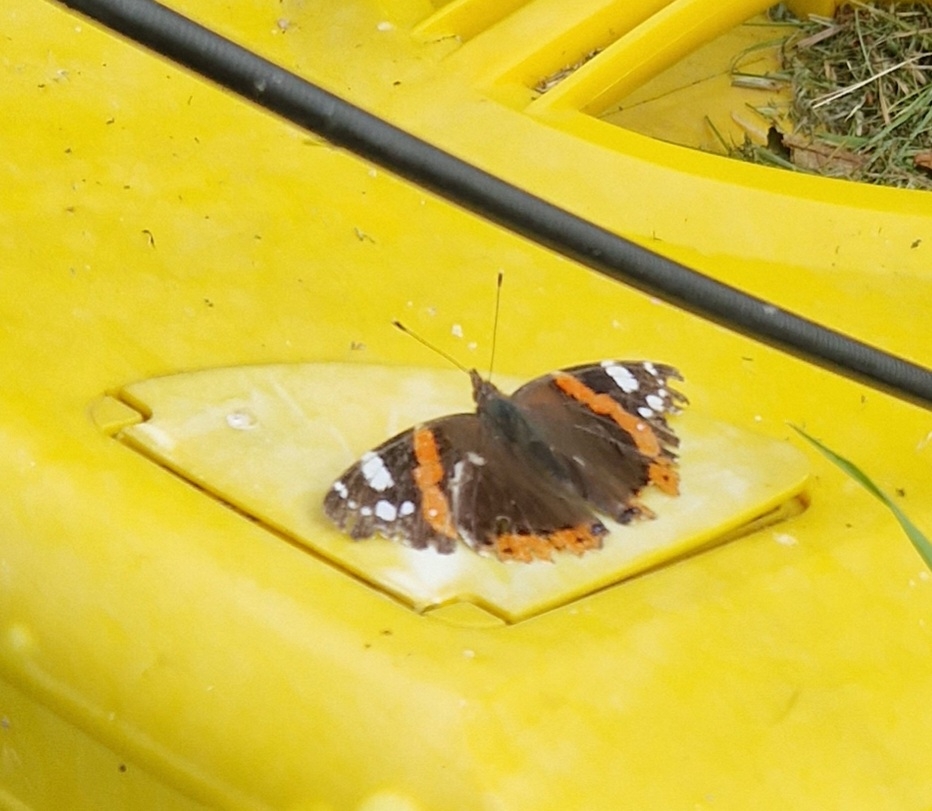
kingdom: Animalia
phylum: Arthropoda
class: Insecta
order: Lepidoptera
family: Nymphalidae
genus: Vanessa
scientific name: Vanessa atalanta
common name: Admiral
